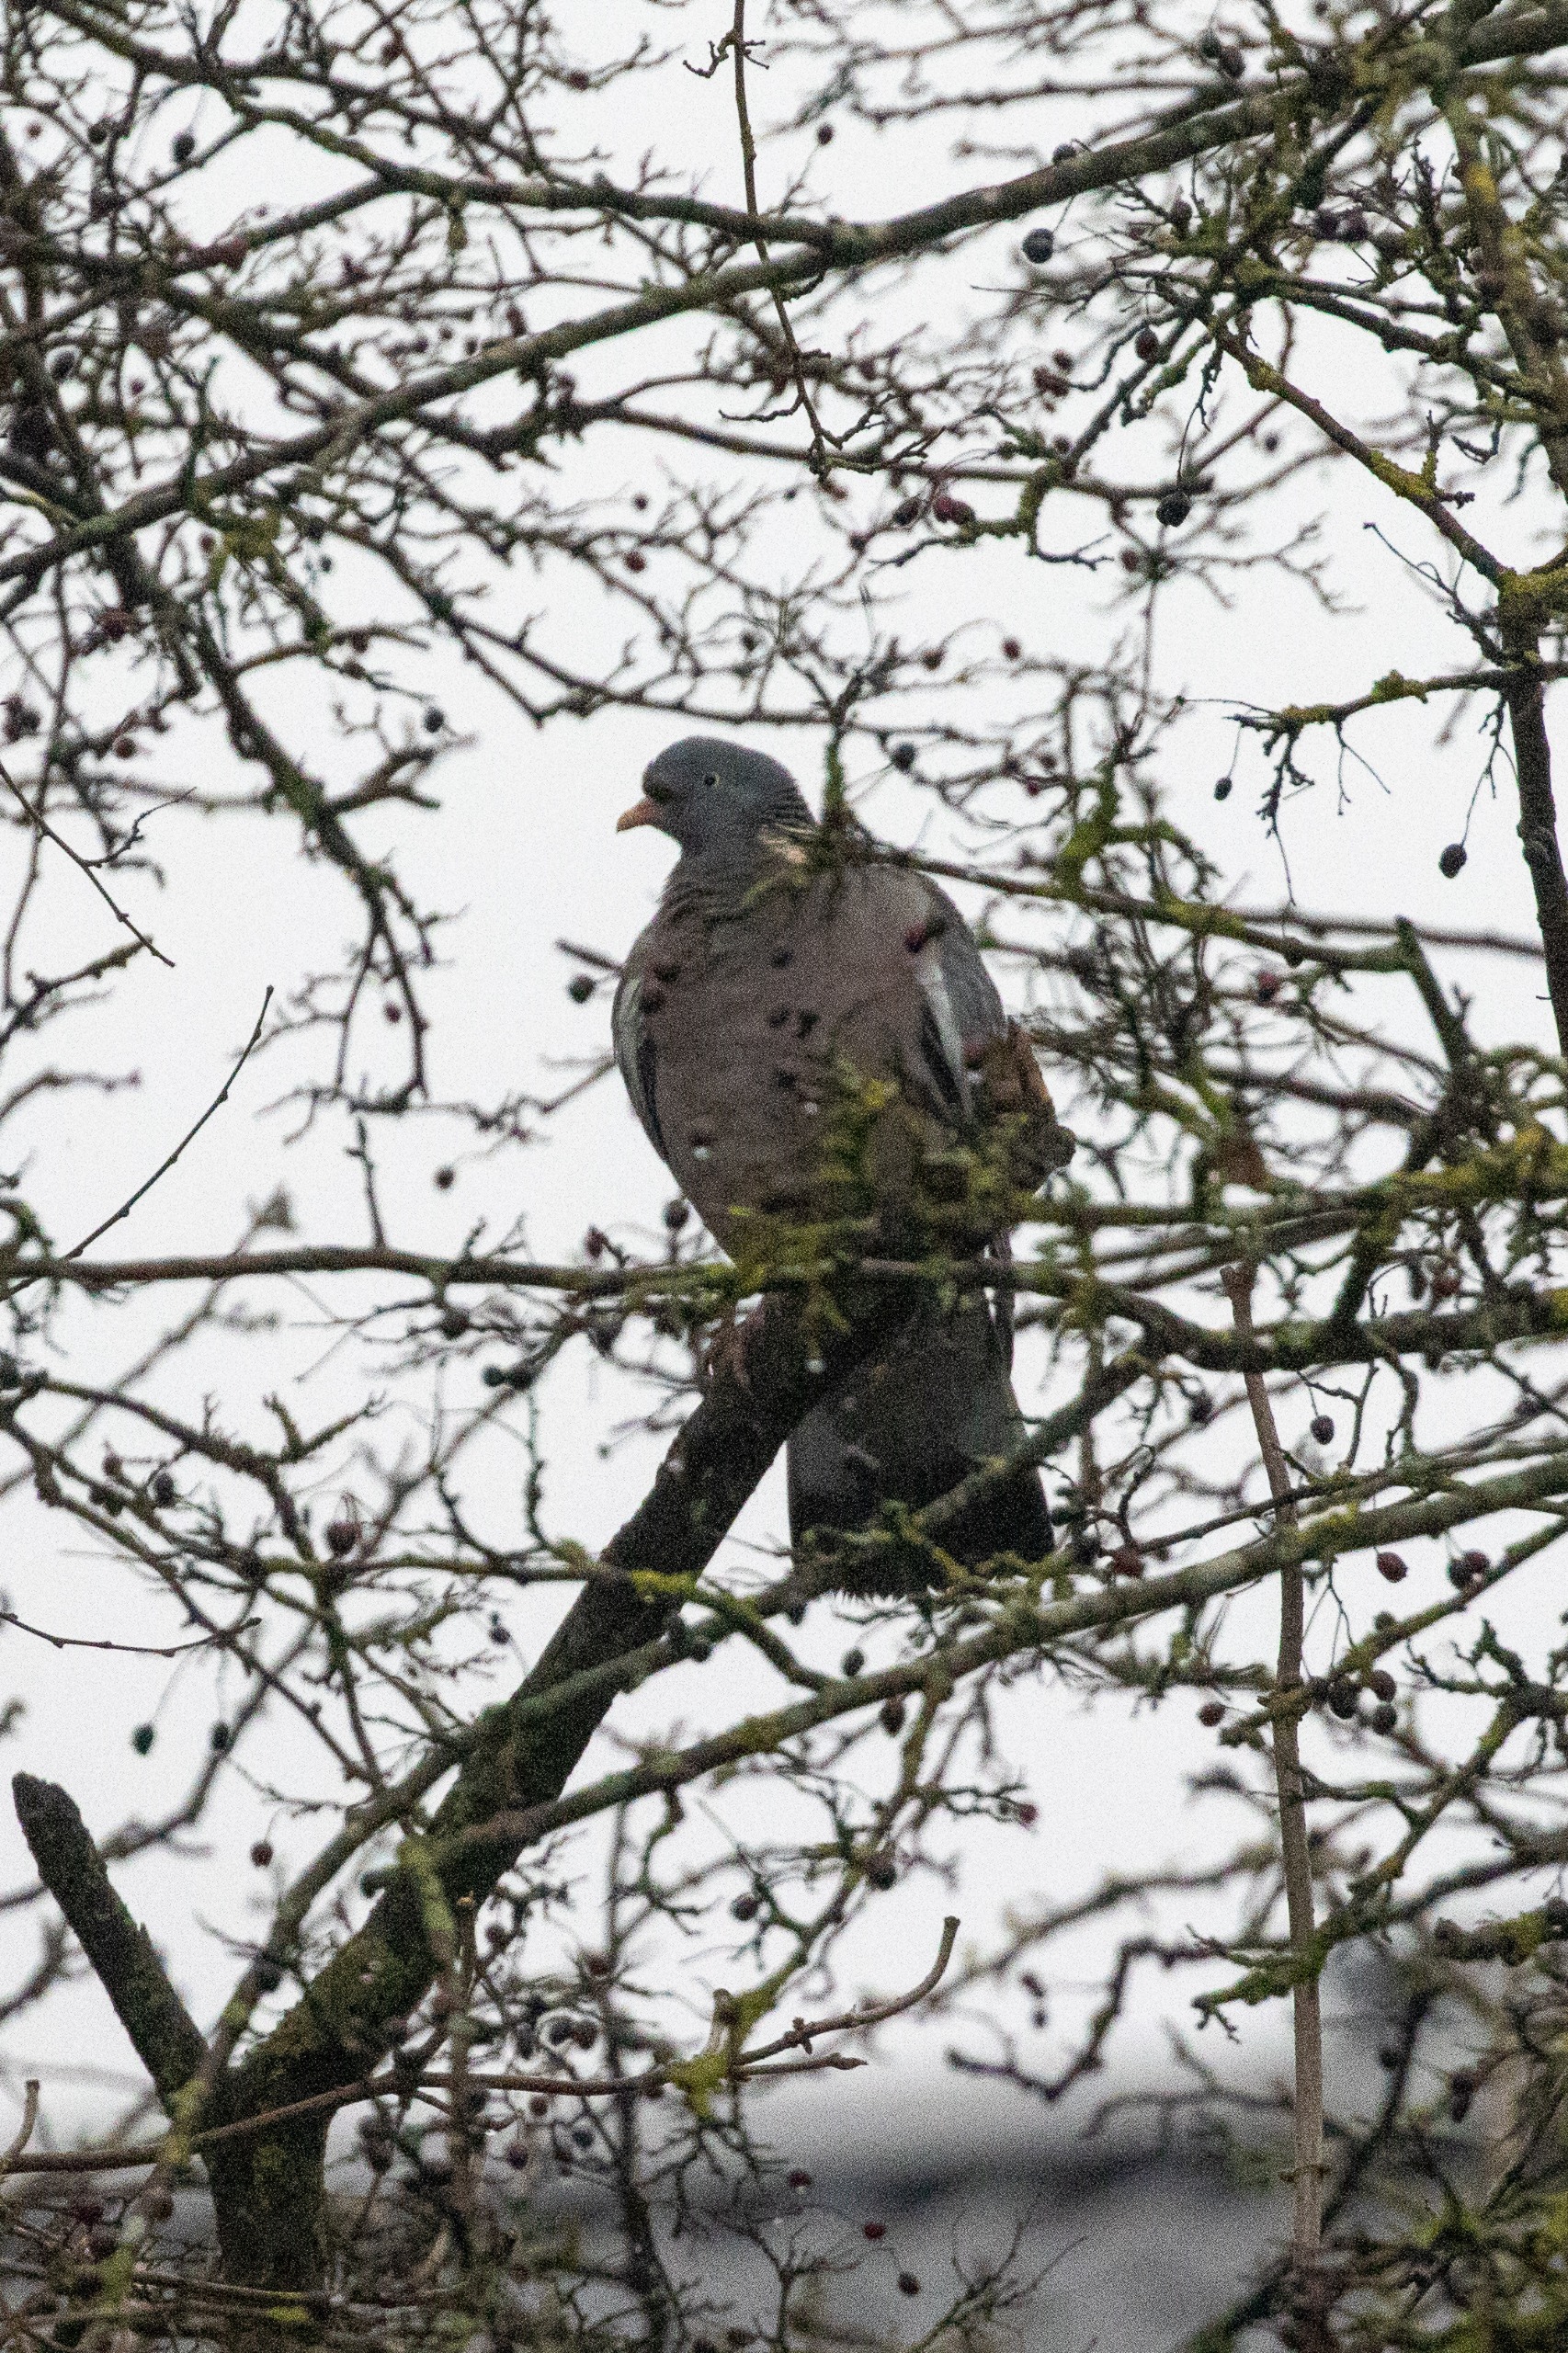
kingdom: Animalia
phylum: Chordata
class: Aves
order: Columbiformes
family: Columbidae
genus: Columba
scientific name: Columba palumbus
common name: Ringdue
